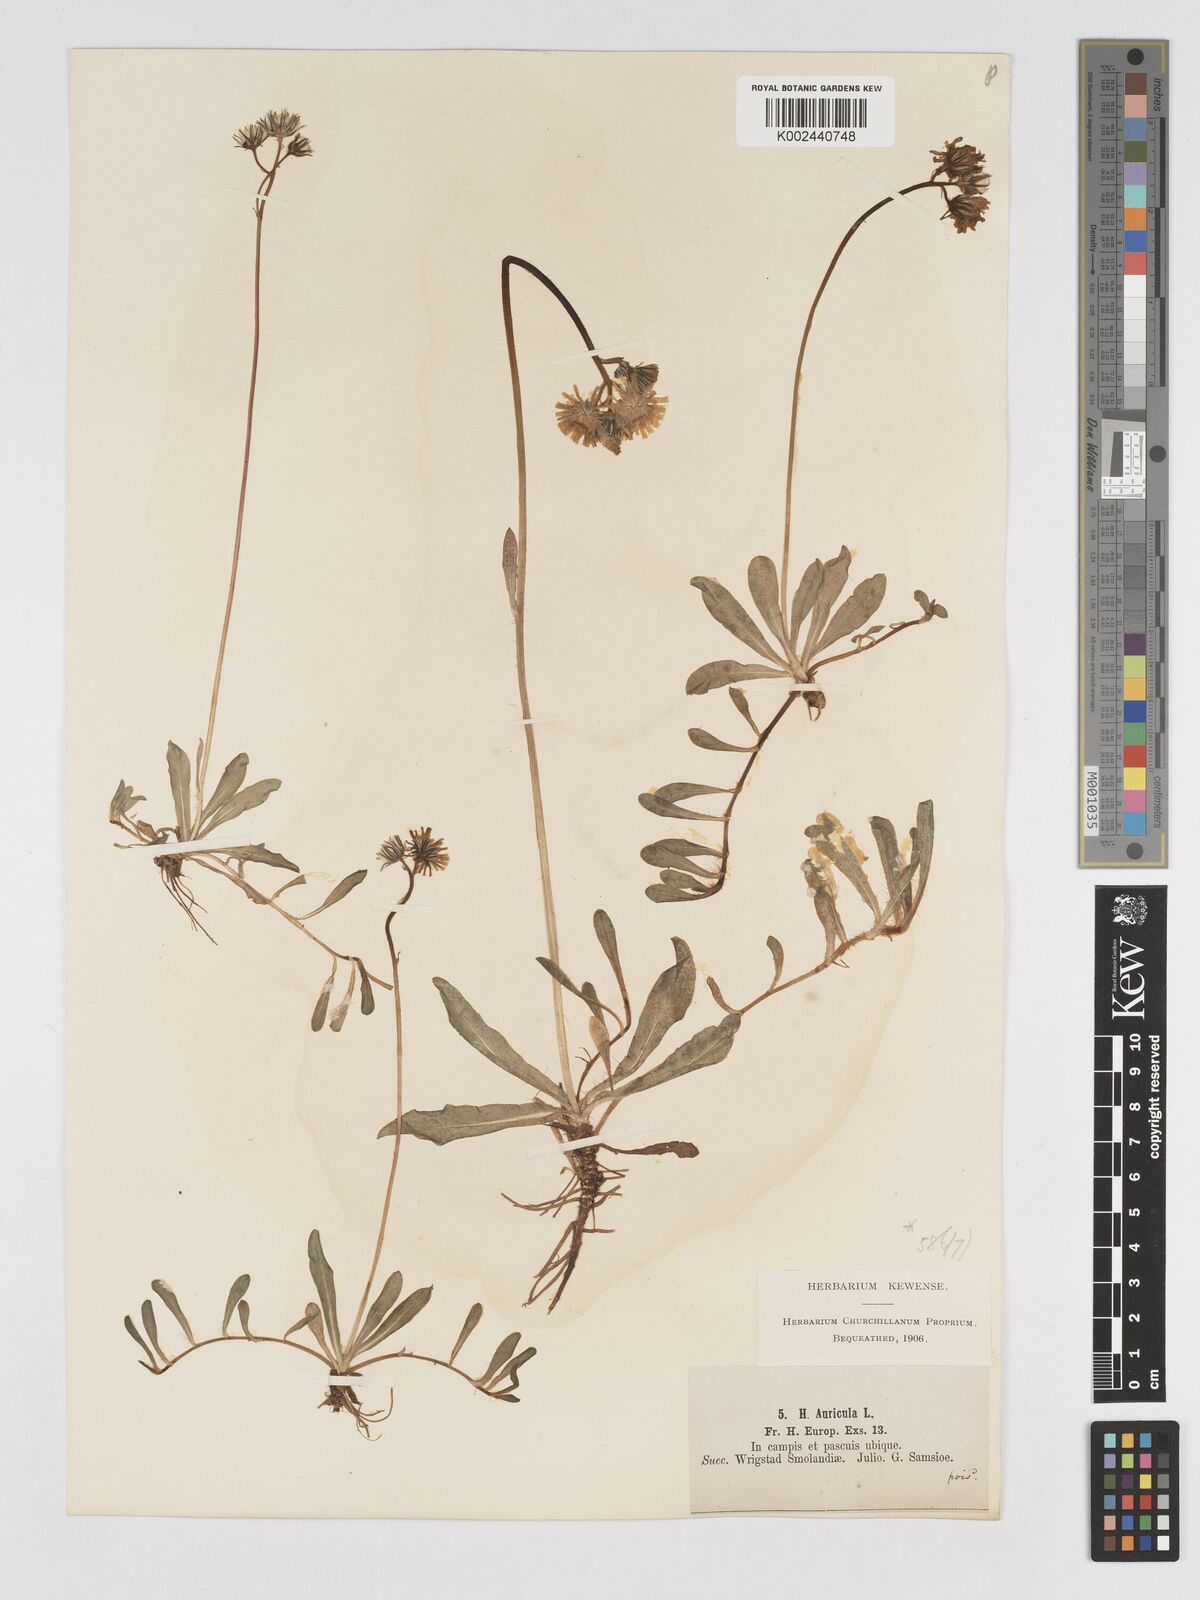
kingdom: Plantae
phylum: Tracheophyta
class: Magnoliopsida
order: Asterales
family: Asteraceae
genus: Pilosella
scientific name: Pilosella floribunda
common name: Glaucous hawkweed
